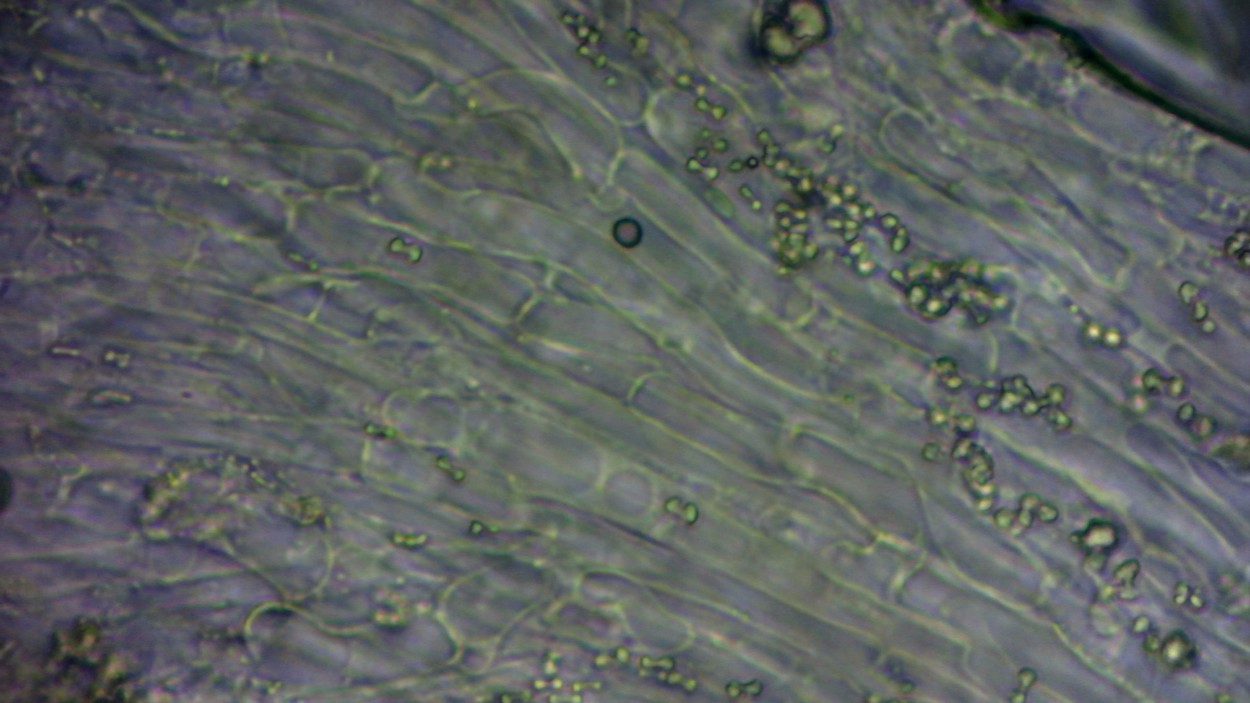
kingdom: Fungi
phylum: Basidiomycota
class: Agaricomycetes
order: Agaricales
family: Typhulaceae
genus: Typhula
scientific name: Typhula spathulata
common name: aske-trådkølle
